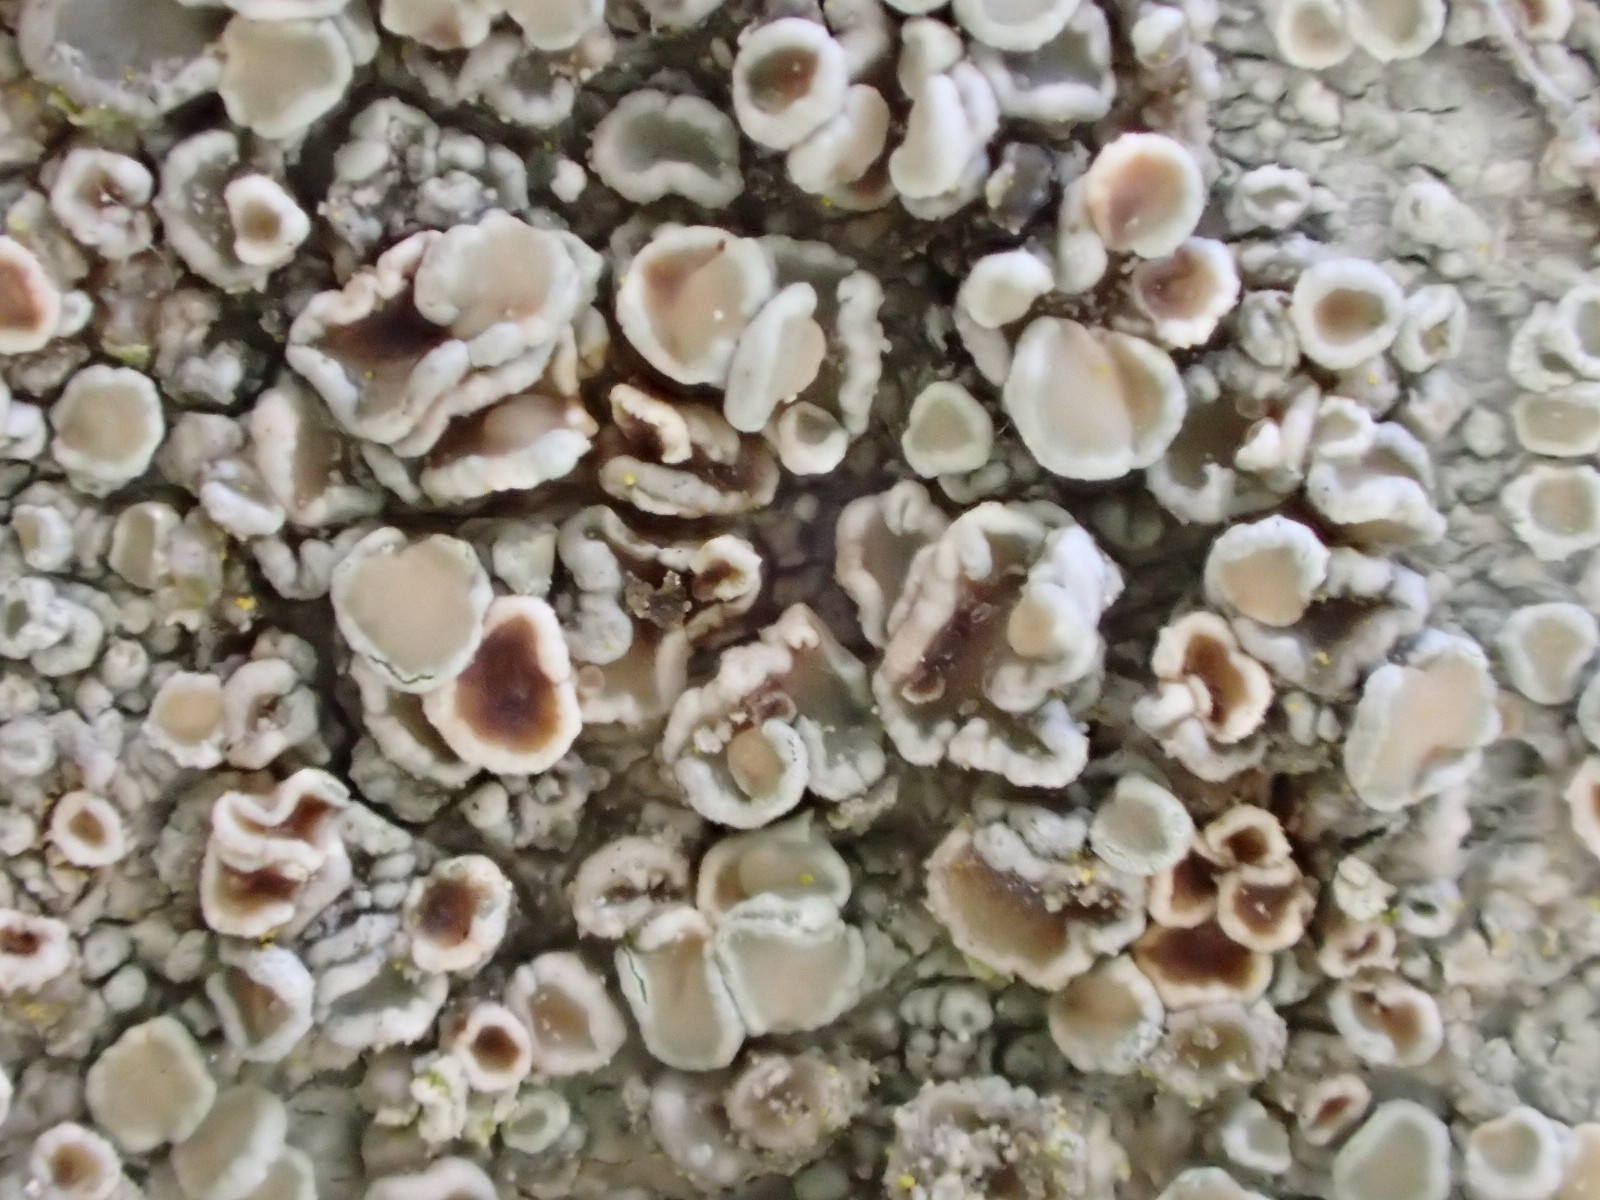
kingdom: Fungi
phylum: Ascomycota
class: Lecanoromycetes
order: Lecanorales
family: Lecanoraceae
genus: Lecanora
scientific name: Lecanora chlarotera
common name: brun kantskivelav
